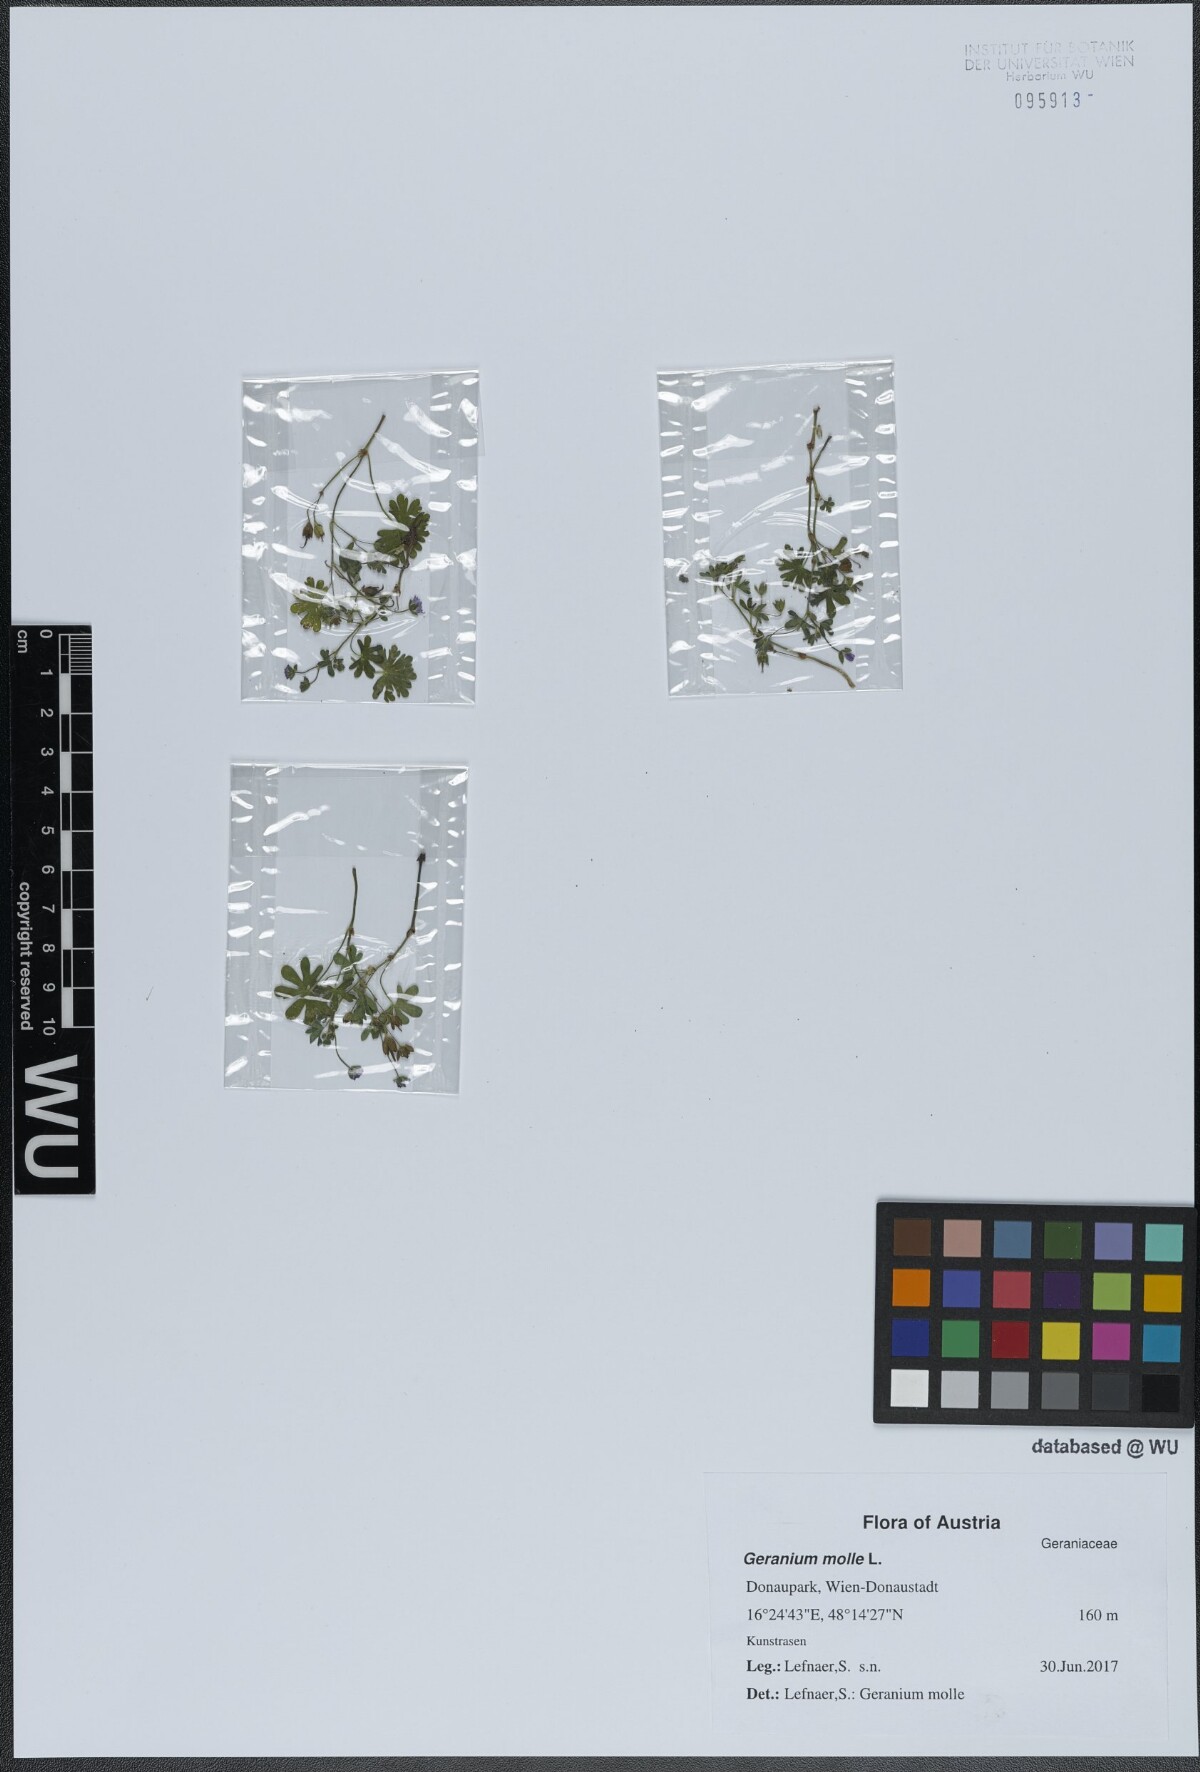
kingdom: Plantae
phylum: Tracheophyta
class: Magnoliopsida
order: Geraniales
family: Geraniaceae
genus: Geranium
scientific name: Geranium molle
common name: Dove's-foot crane's-bill
